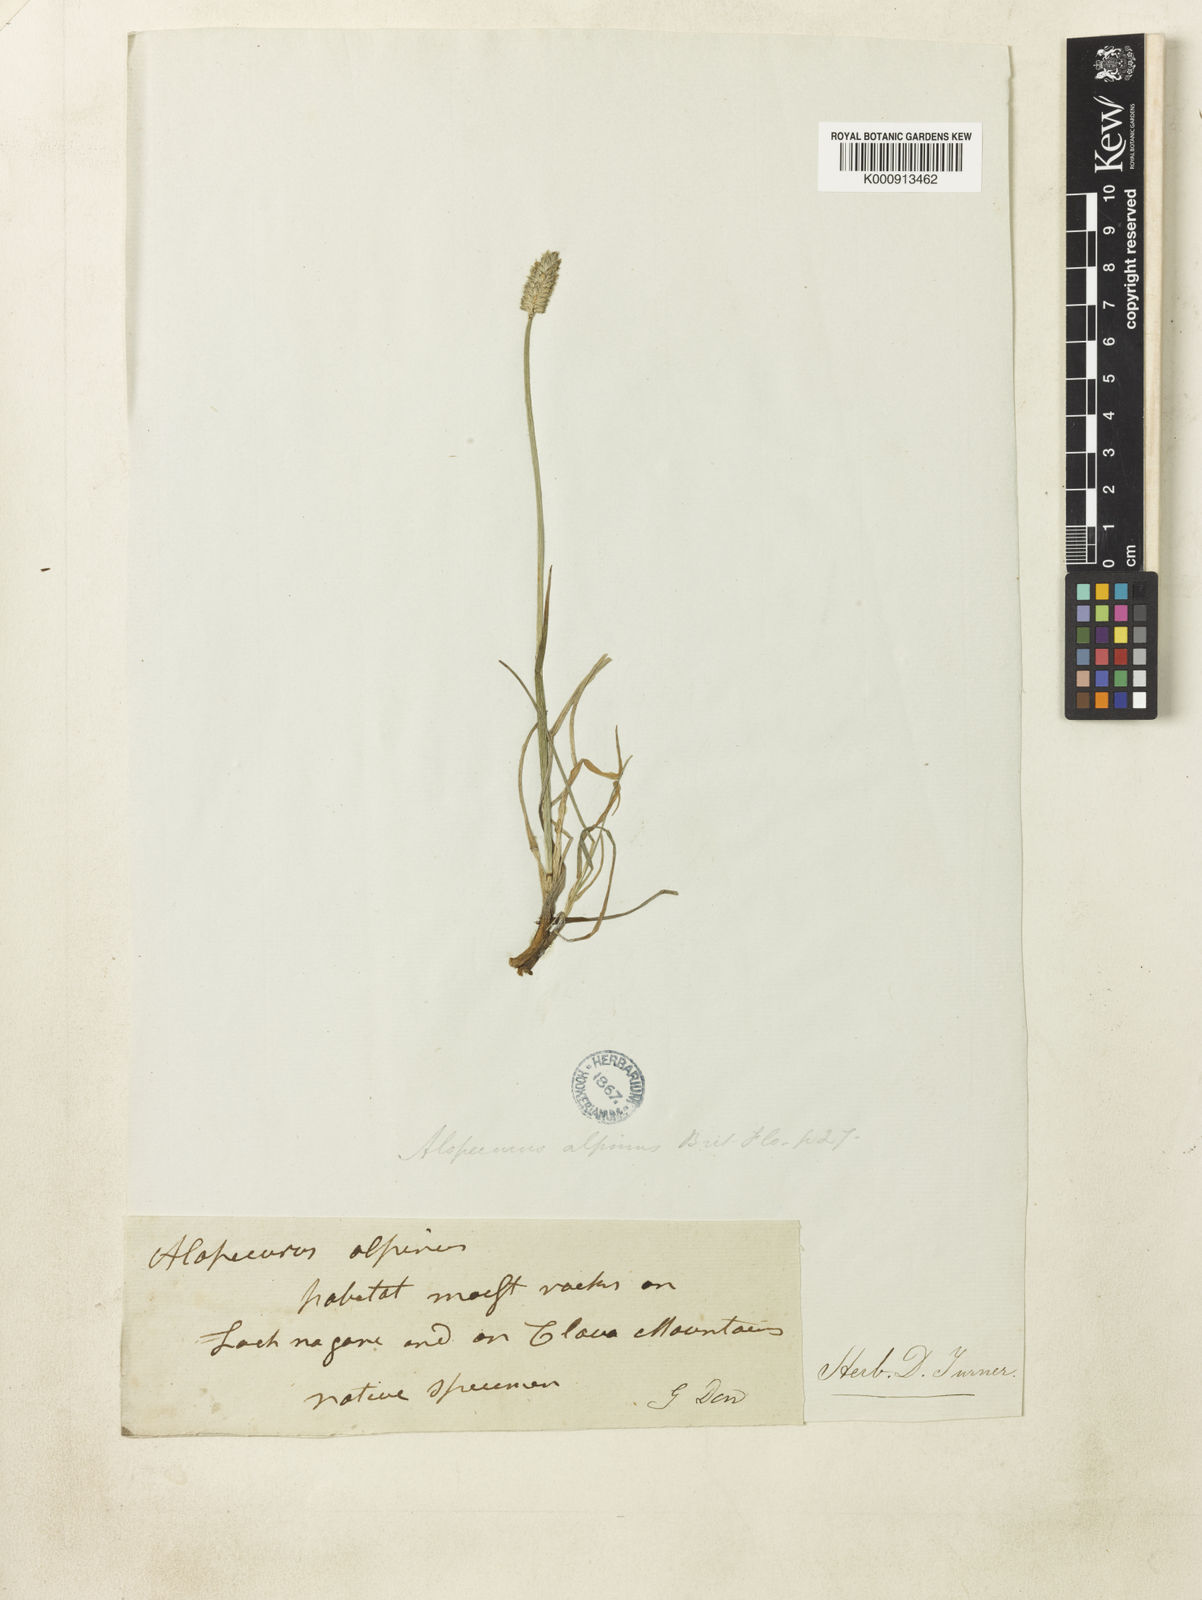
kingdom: Plantae
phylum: Tracheophyta
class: Liliopsida
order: Poales
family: Poaceae
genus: Alopecurus
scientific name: Alopecurus magellanicus
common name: Alpine foxtail
